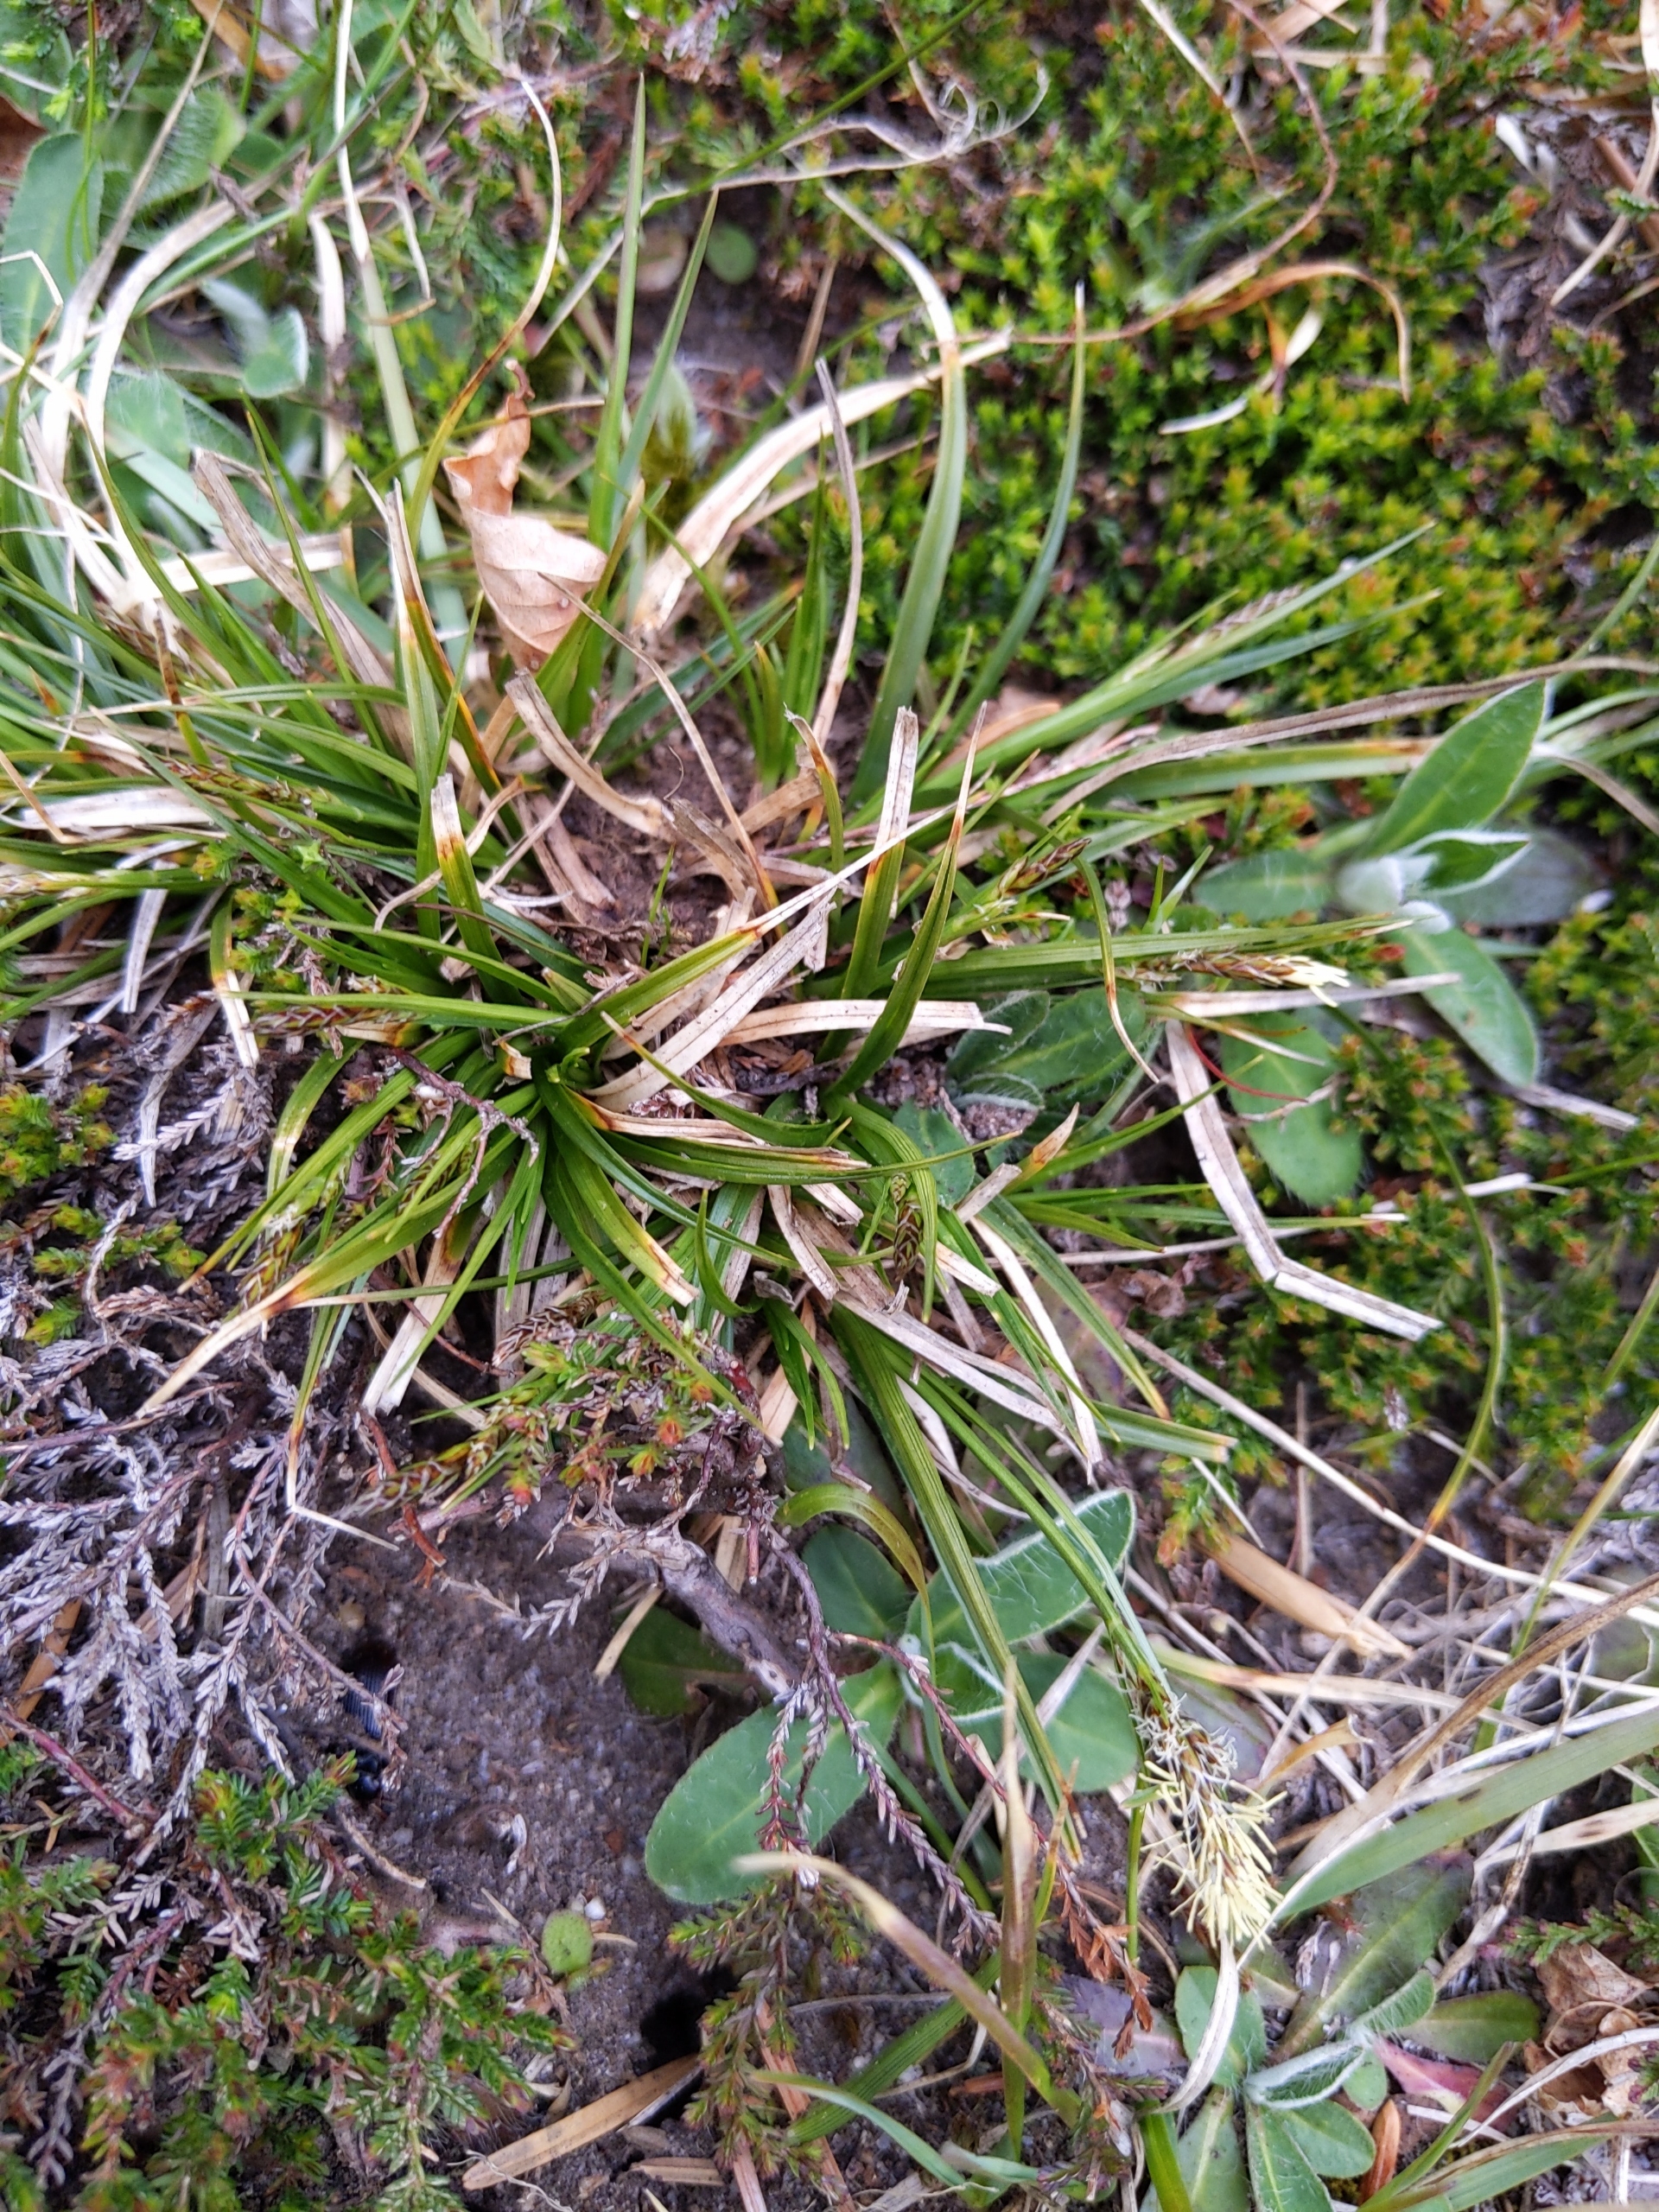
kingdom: Plantae
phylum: Tracheophyta
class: Liliopsida
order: Poales
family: Cyperaceae
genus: Carex
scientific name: Carex pilulifera
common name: Pille-star
